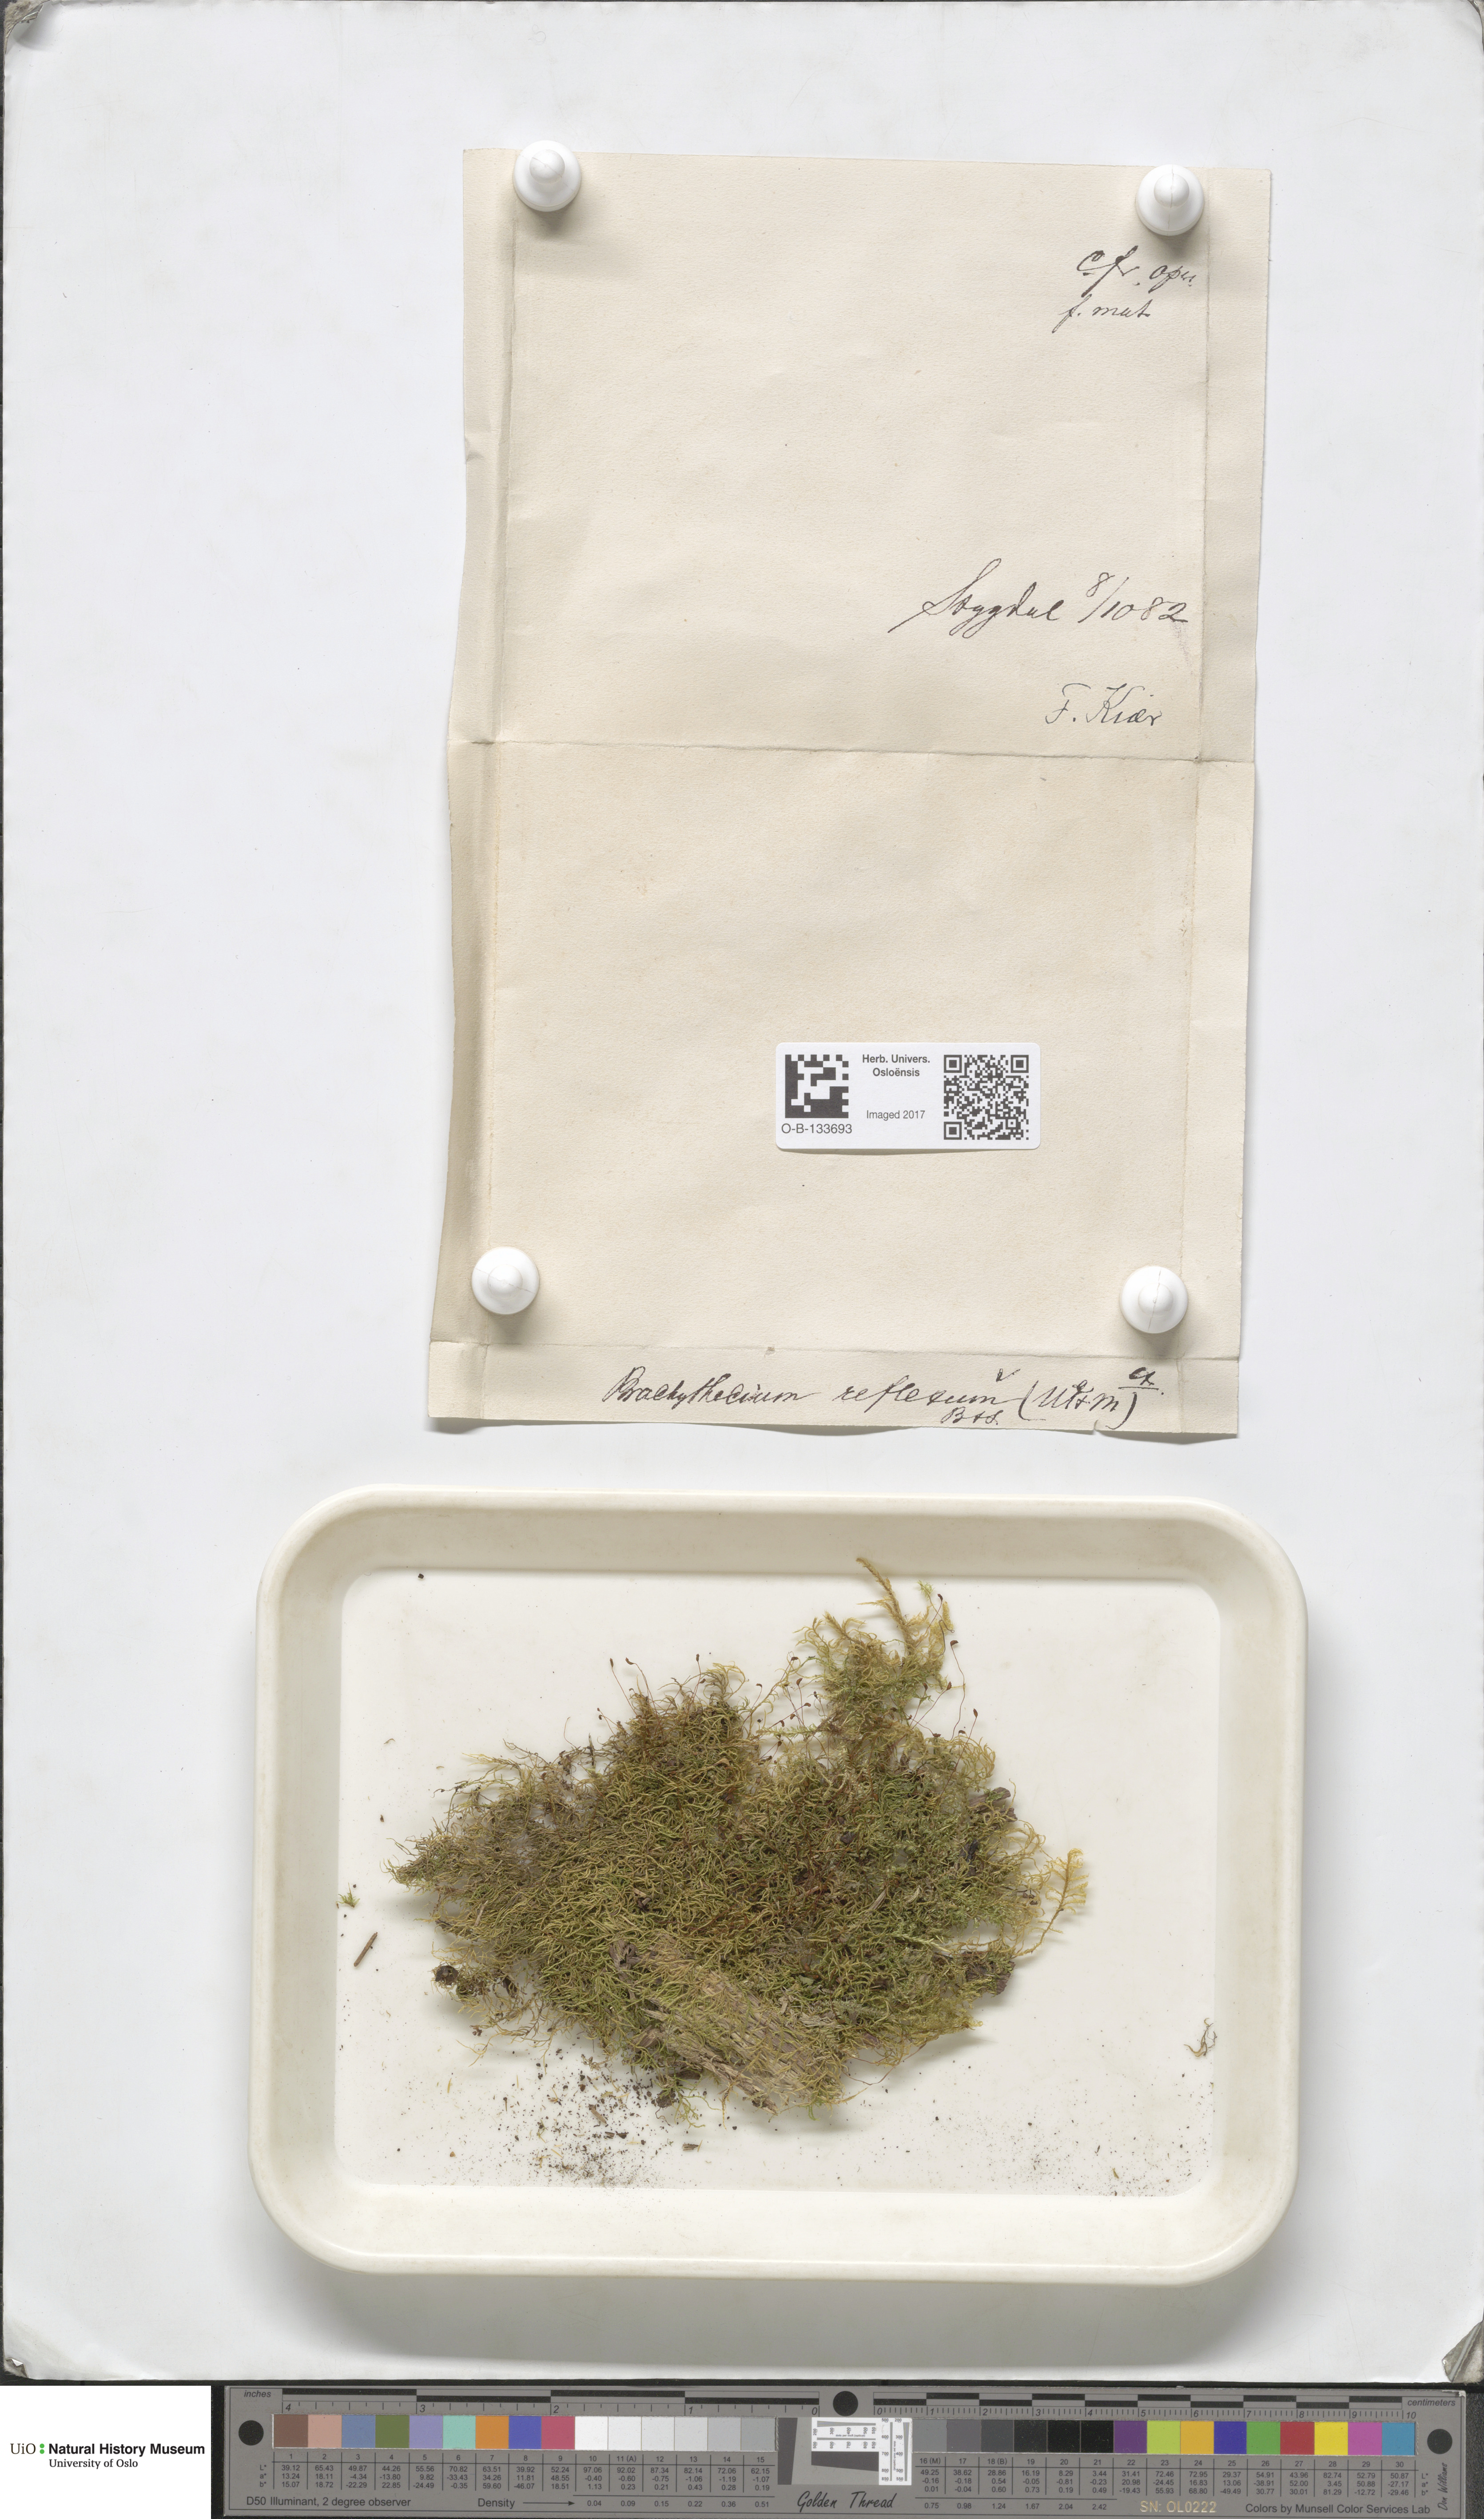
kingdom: Plantae
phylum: Bryophyta
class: Bryopsida
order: Hypnales
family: Brachytheciaceae
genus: Sciuro-hypnum
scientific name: Sciuro-hypnum reflexum
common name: Reflexed feather-moss
